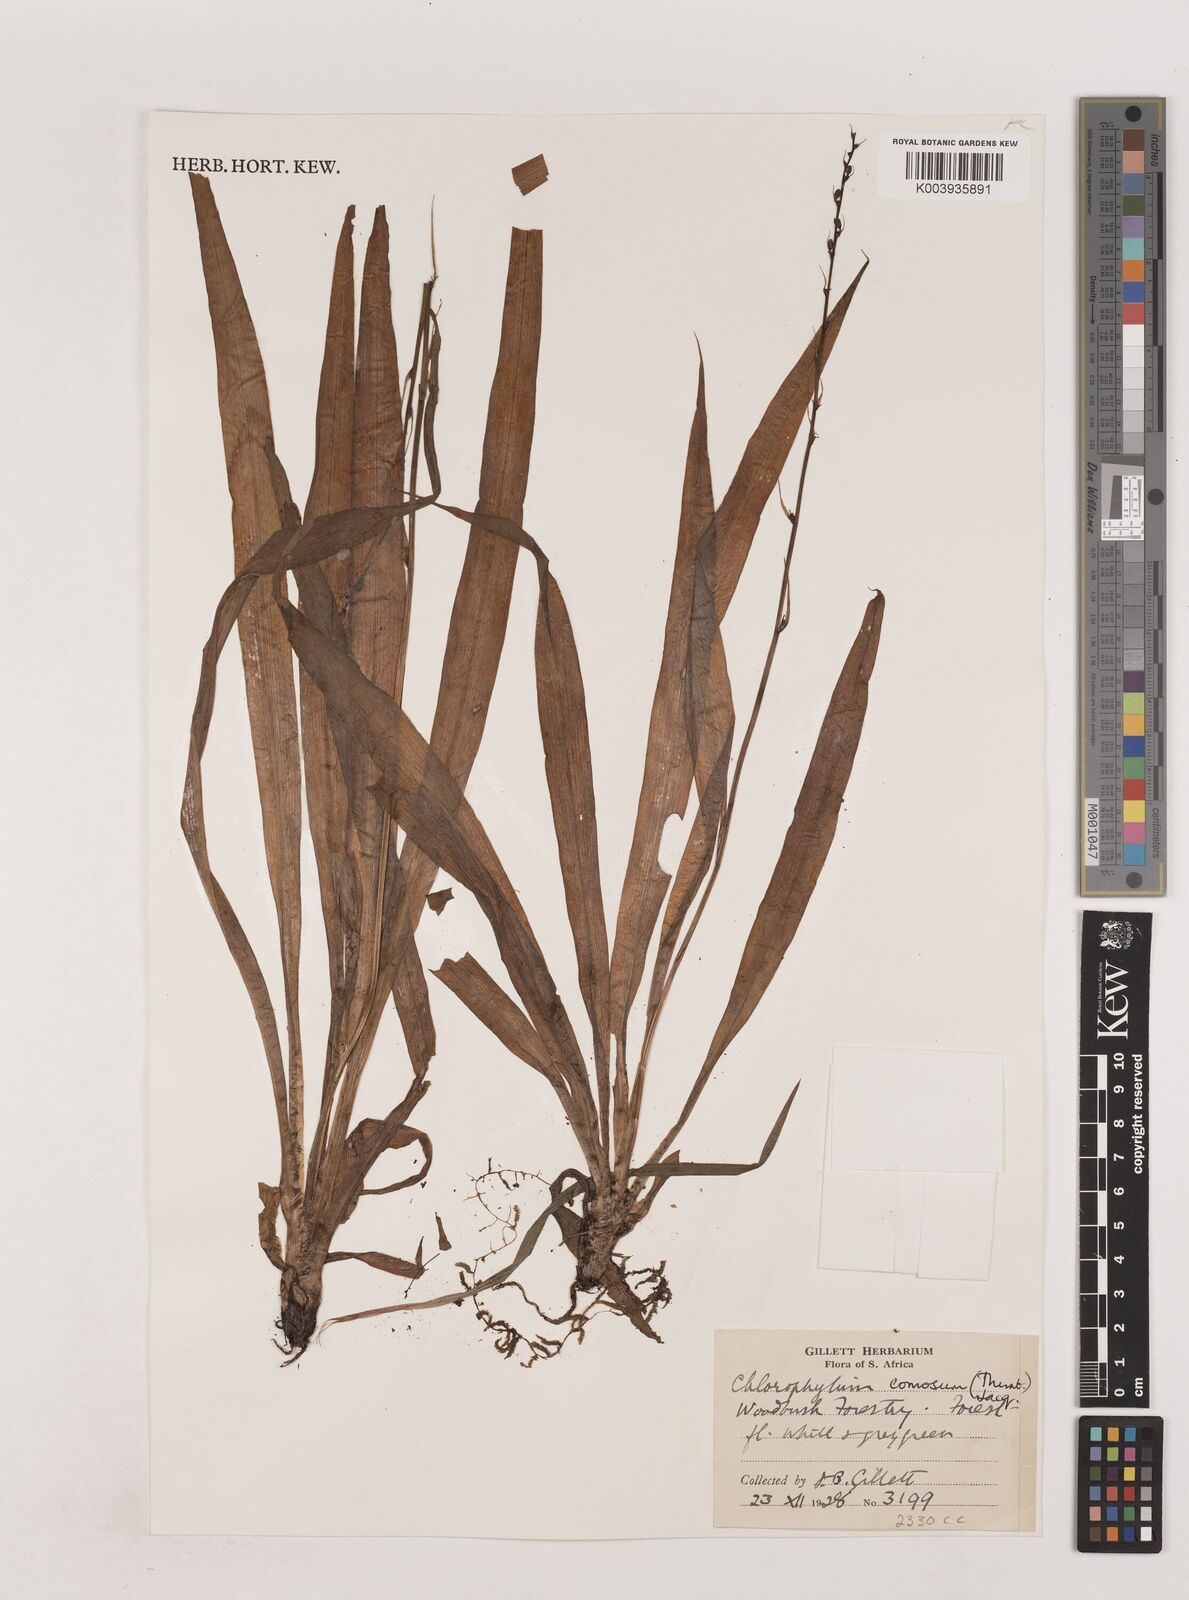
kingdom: Plantae
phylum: Tracheophyta
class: Liliopsida
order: Asparagales
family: Asparagaceae
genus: Chlorophytum
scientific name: Chlorophytum comosum
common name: Spider plant
